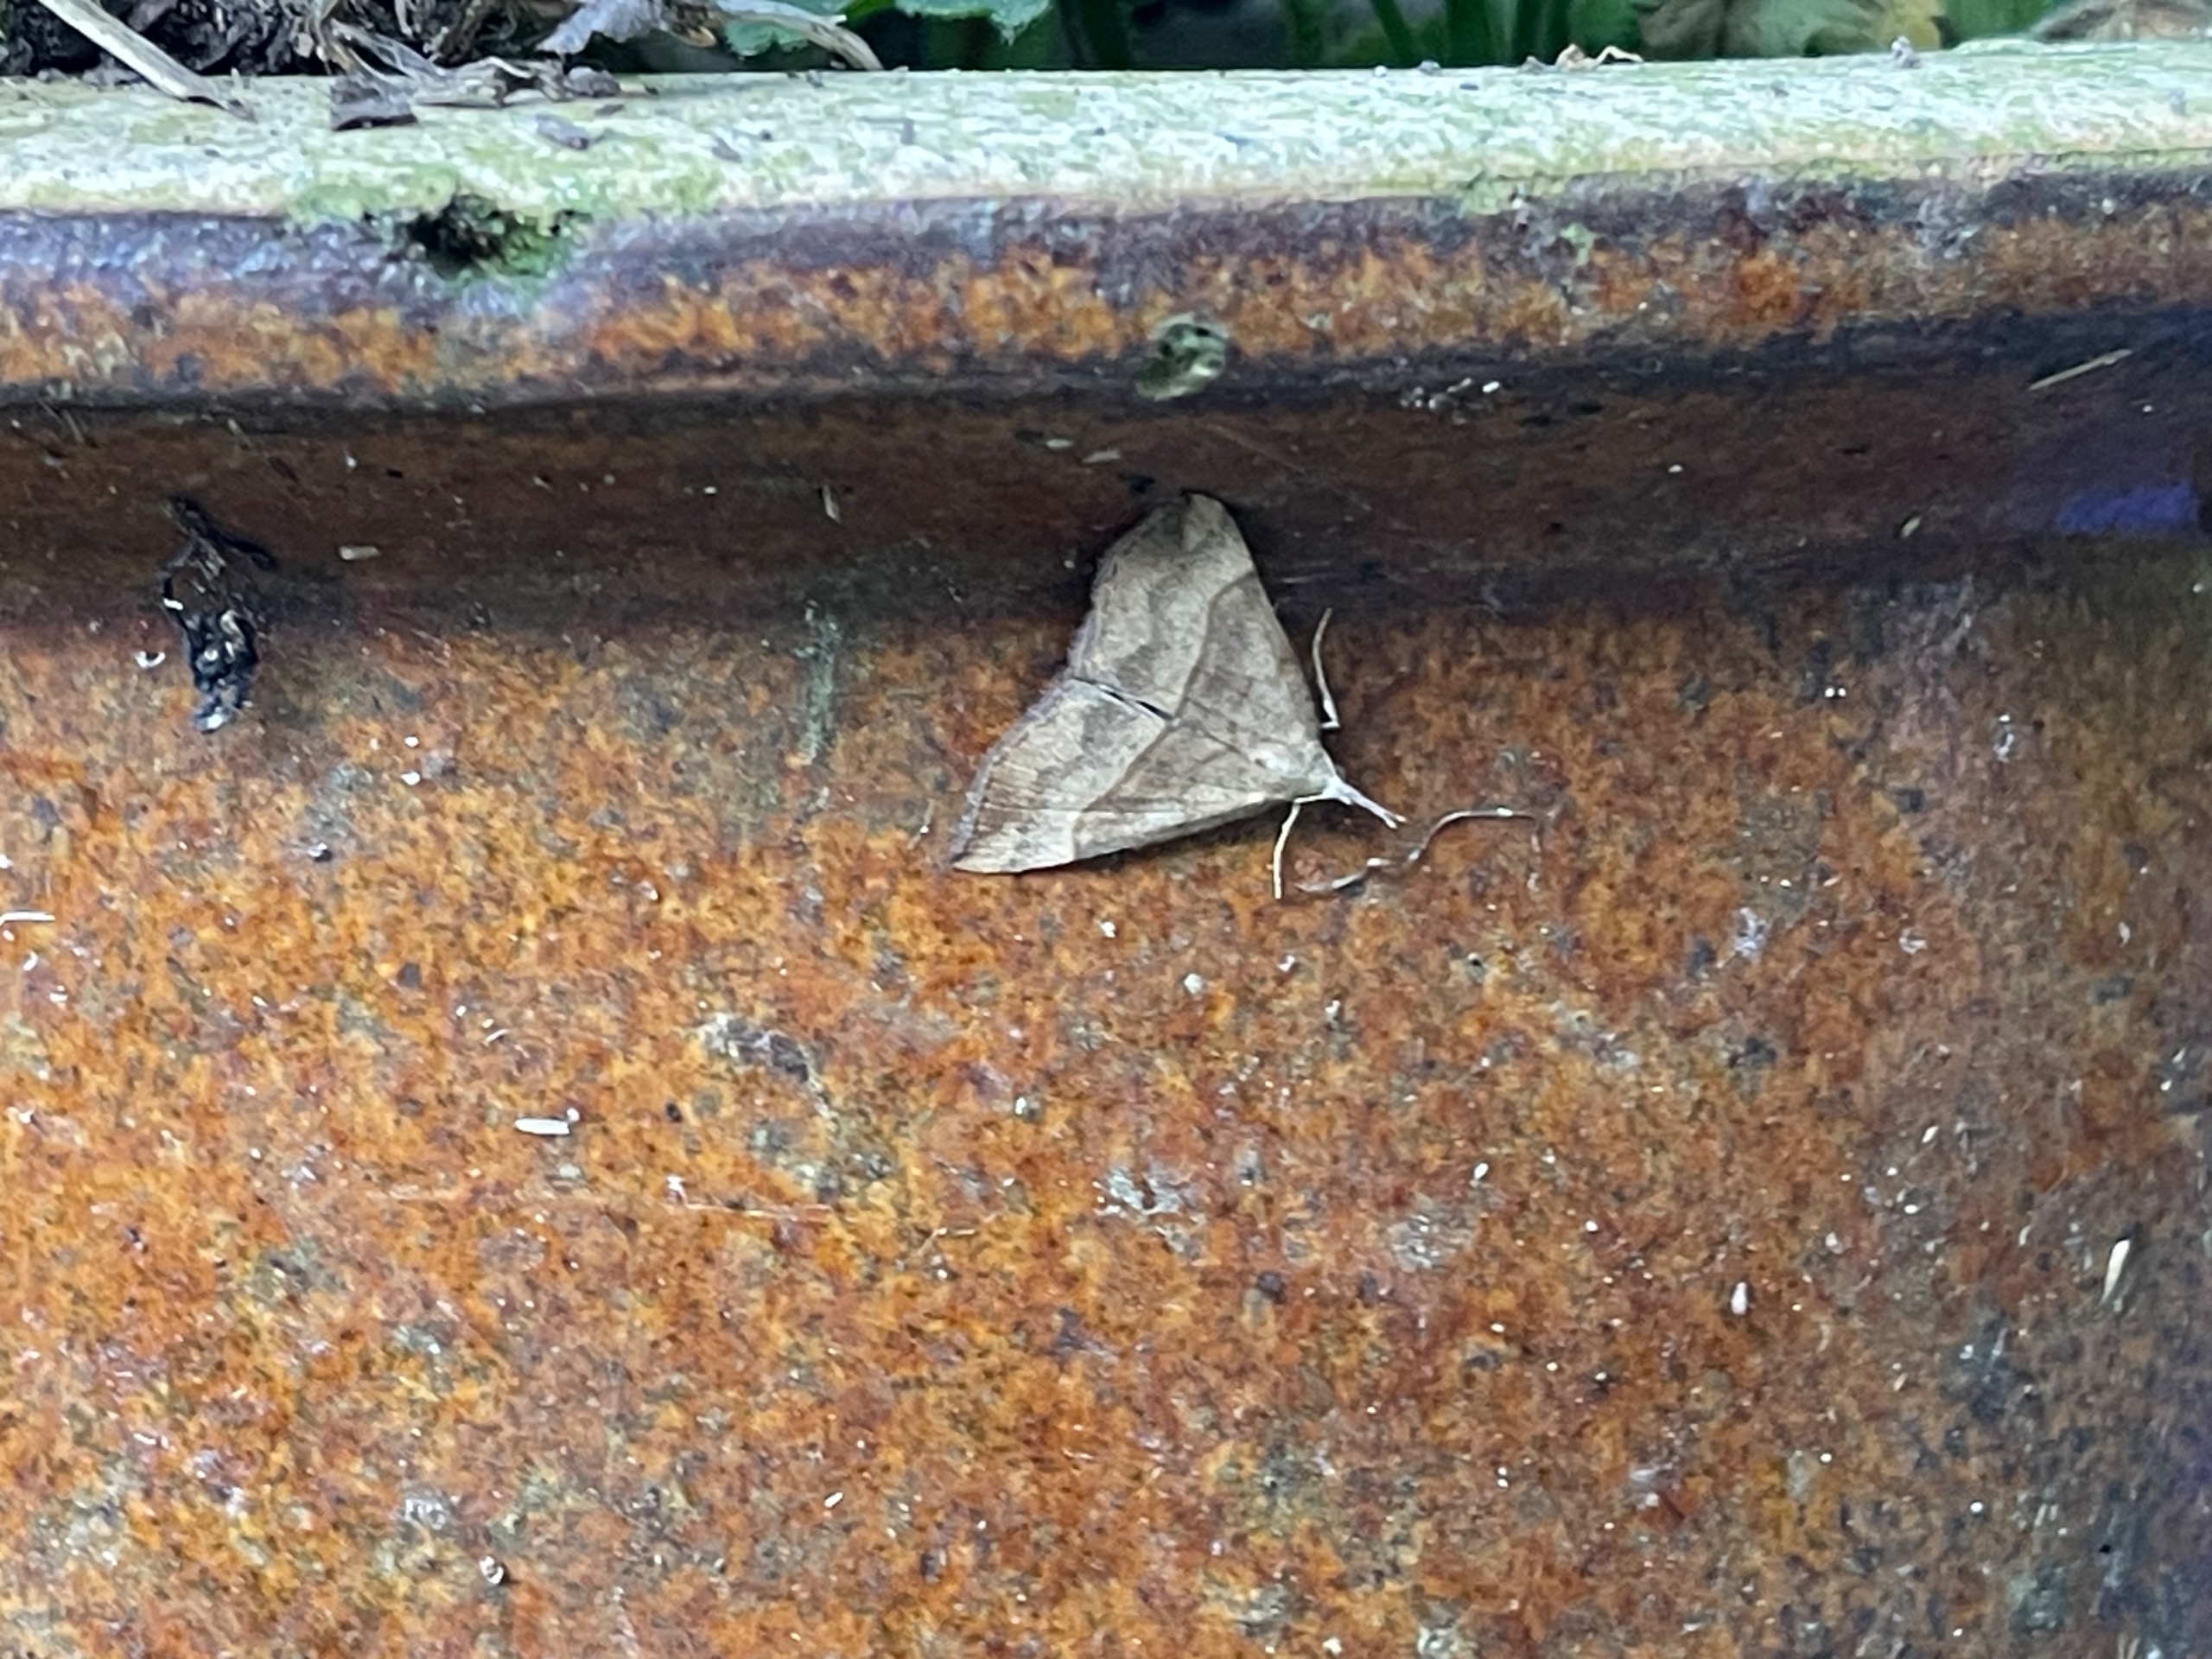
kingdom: Animalia
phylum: Arthropoda
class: Insecta
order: Lepidoptera
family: Erebidae
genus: Hypena
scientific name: Hypena proboscidalis
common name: Snudeugle
